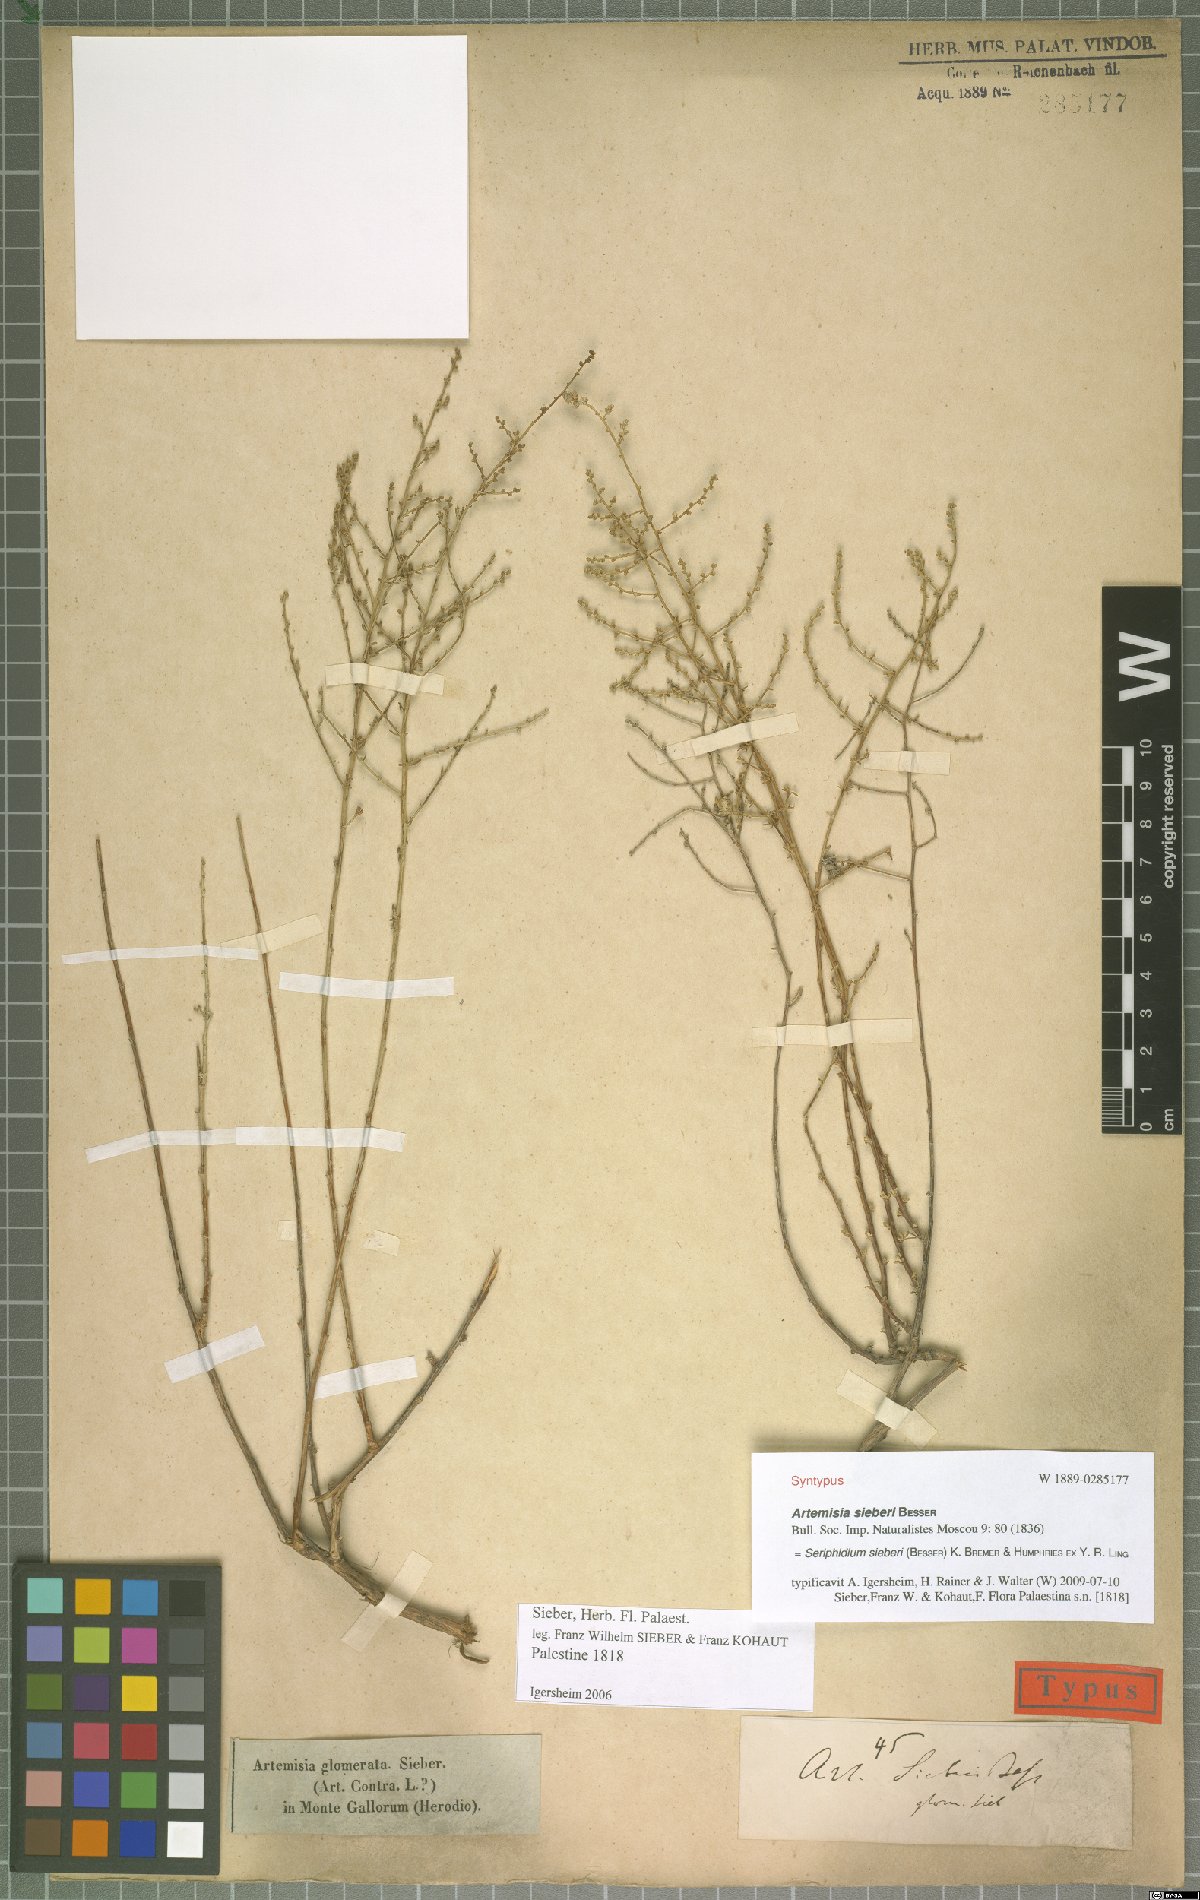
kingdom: Plantae
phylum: Tracheophyta
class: Magnoliopsida
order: Asterales
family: Asteraceae
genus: Artemisia
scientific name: Artemisia sieberi
